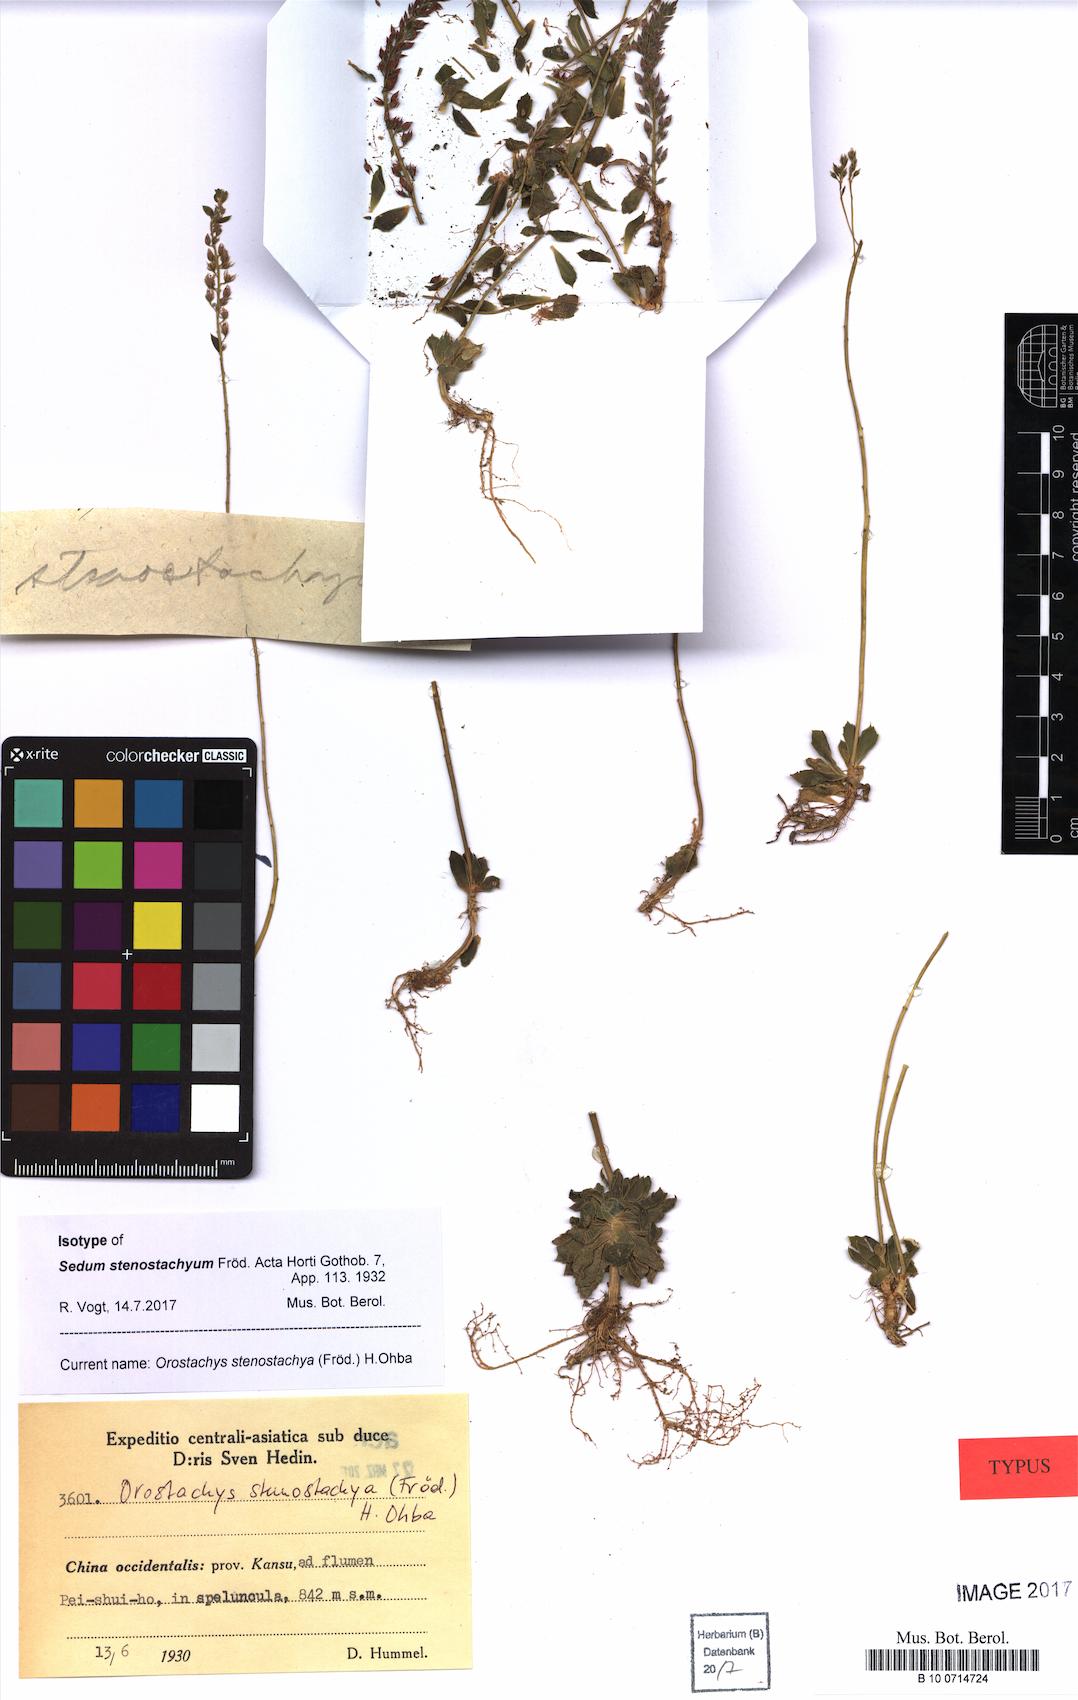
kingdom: Plantae
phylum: Tracheophyta
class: Magnoliopsida
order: Saxifragales
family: Crassulaceae
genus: Orostachys
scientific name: Orostachys stenostachyus
